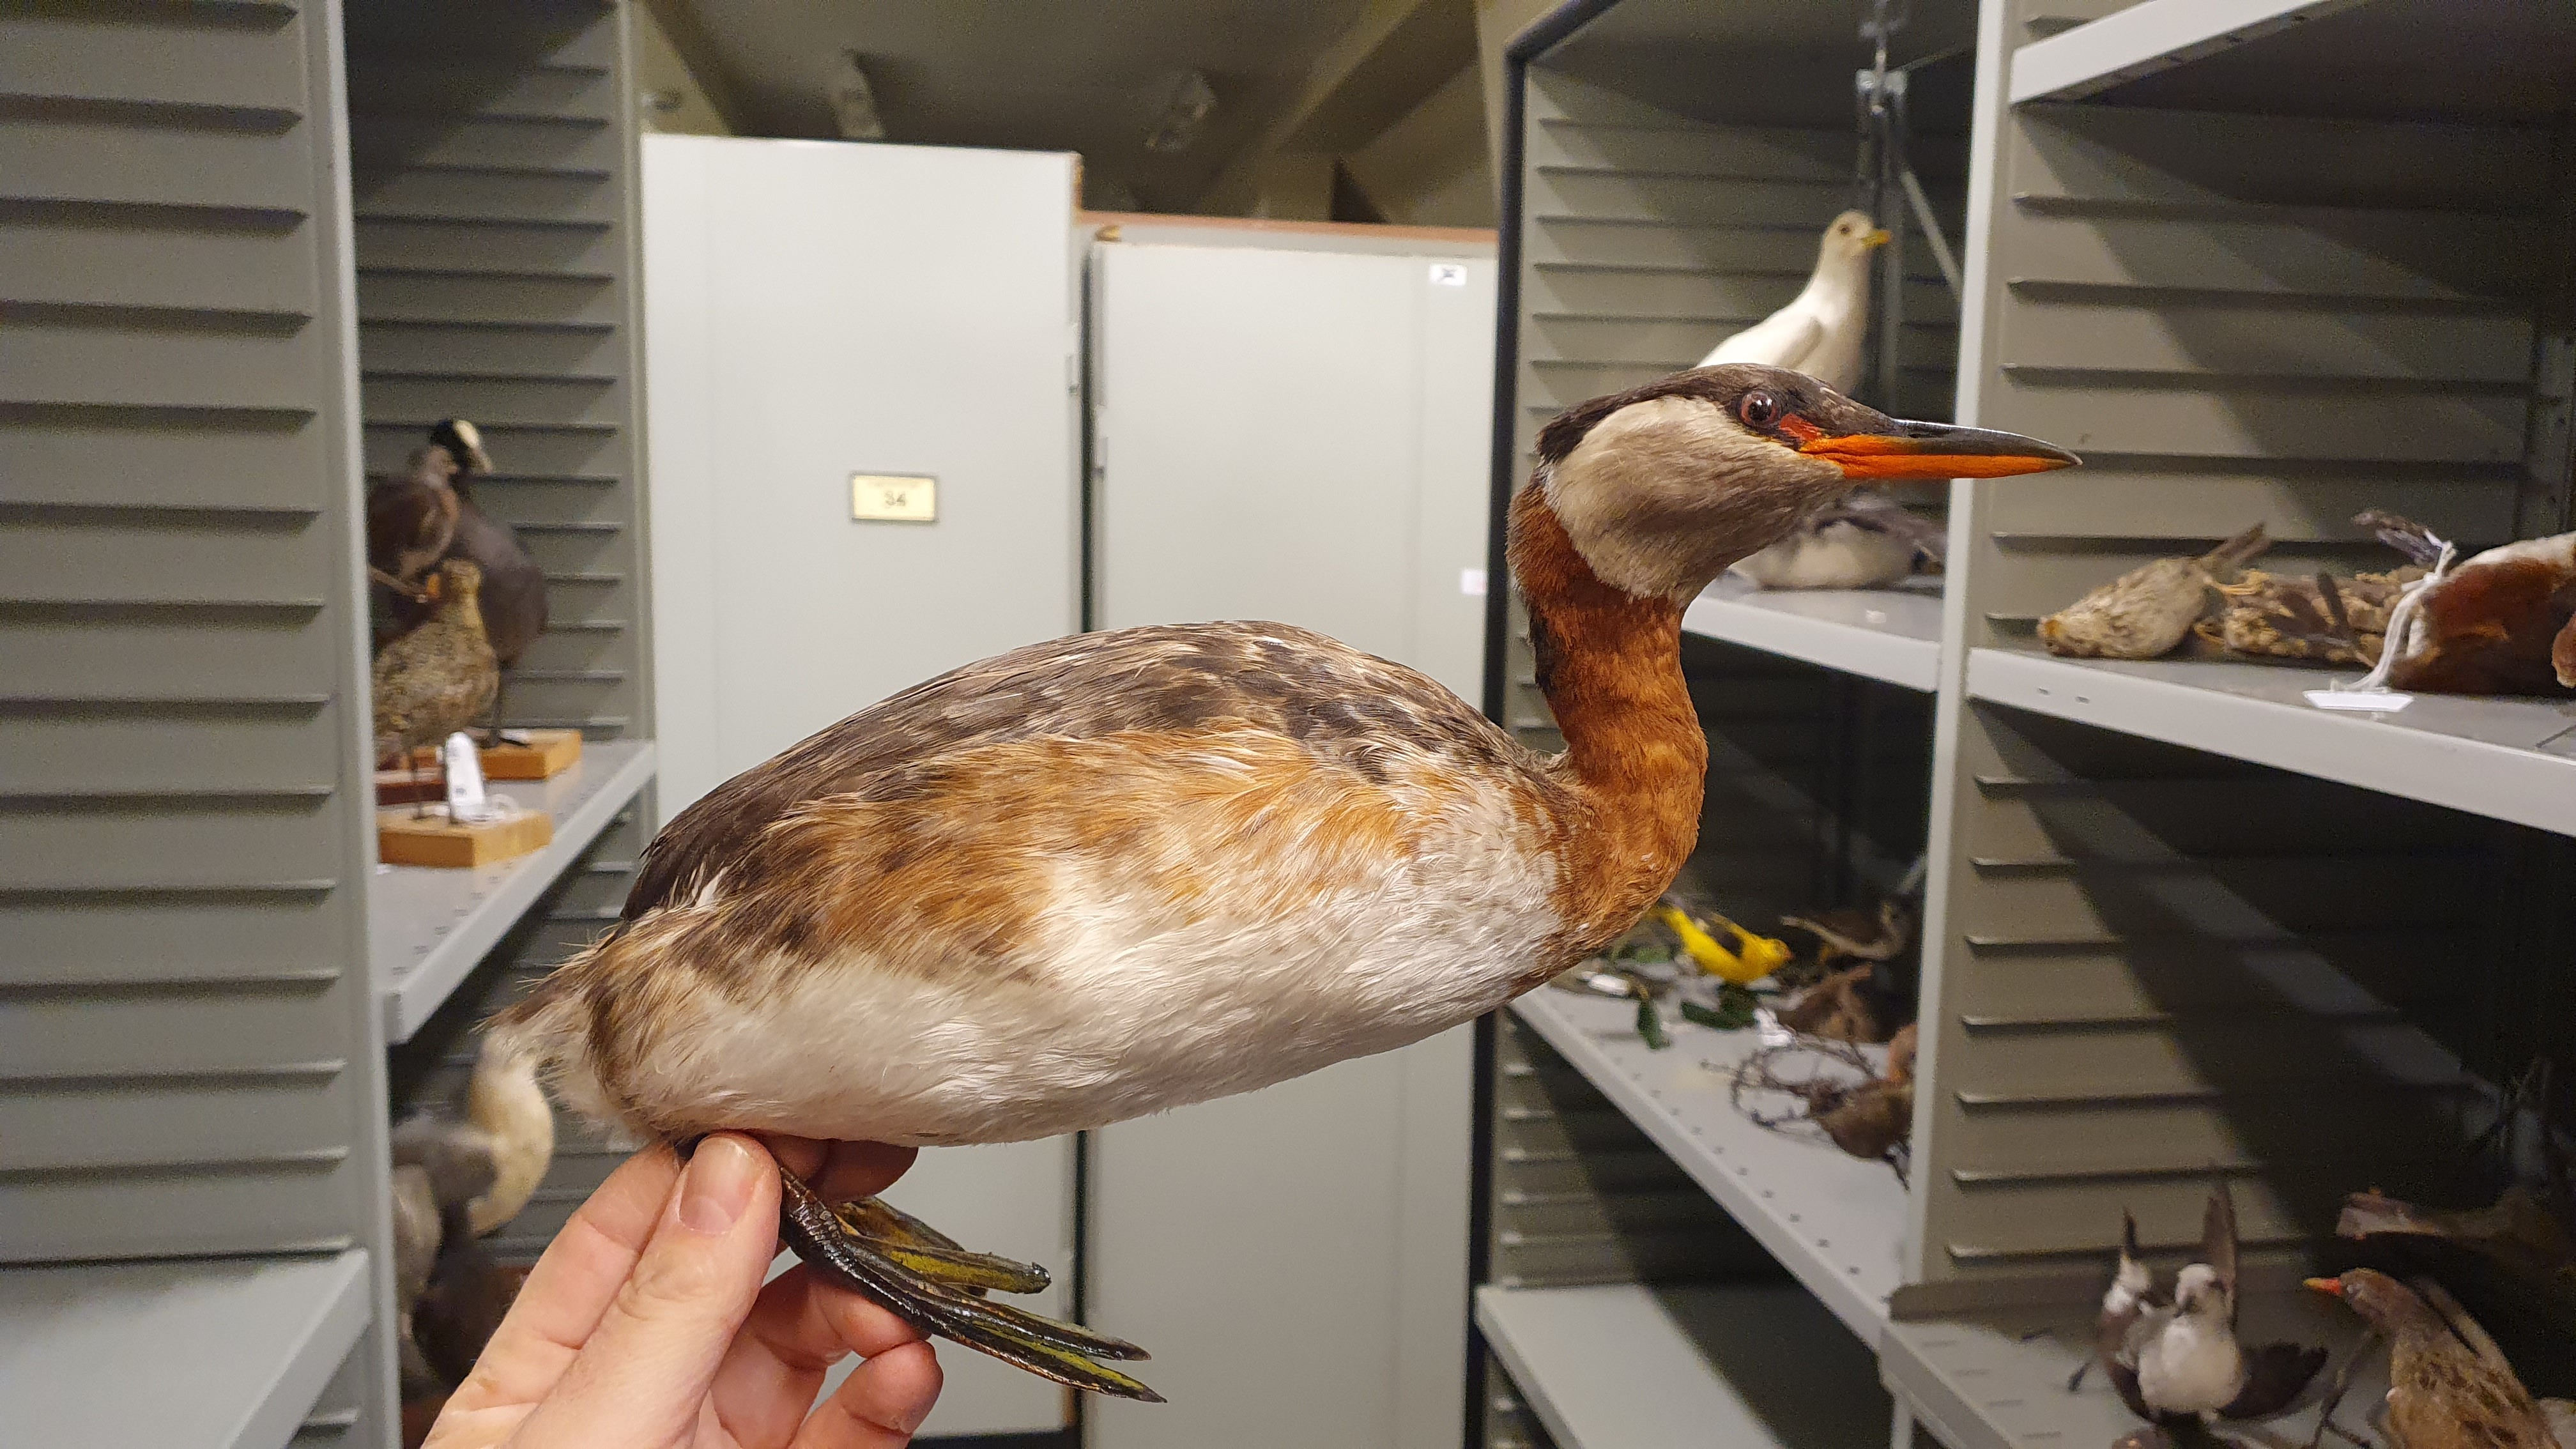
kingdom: Animalia
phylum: Chordata
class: Aves
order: Podicipediformes
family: Podicipedidae
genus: Podiceps
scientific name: Podiceps grisegena
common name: Red-necked grebe
